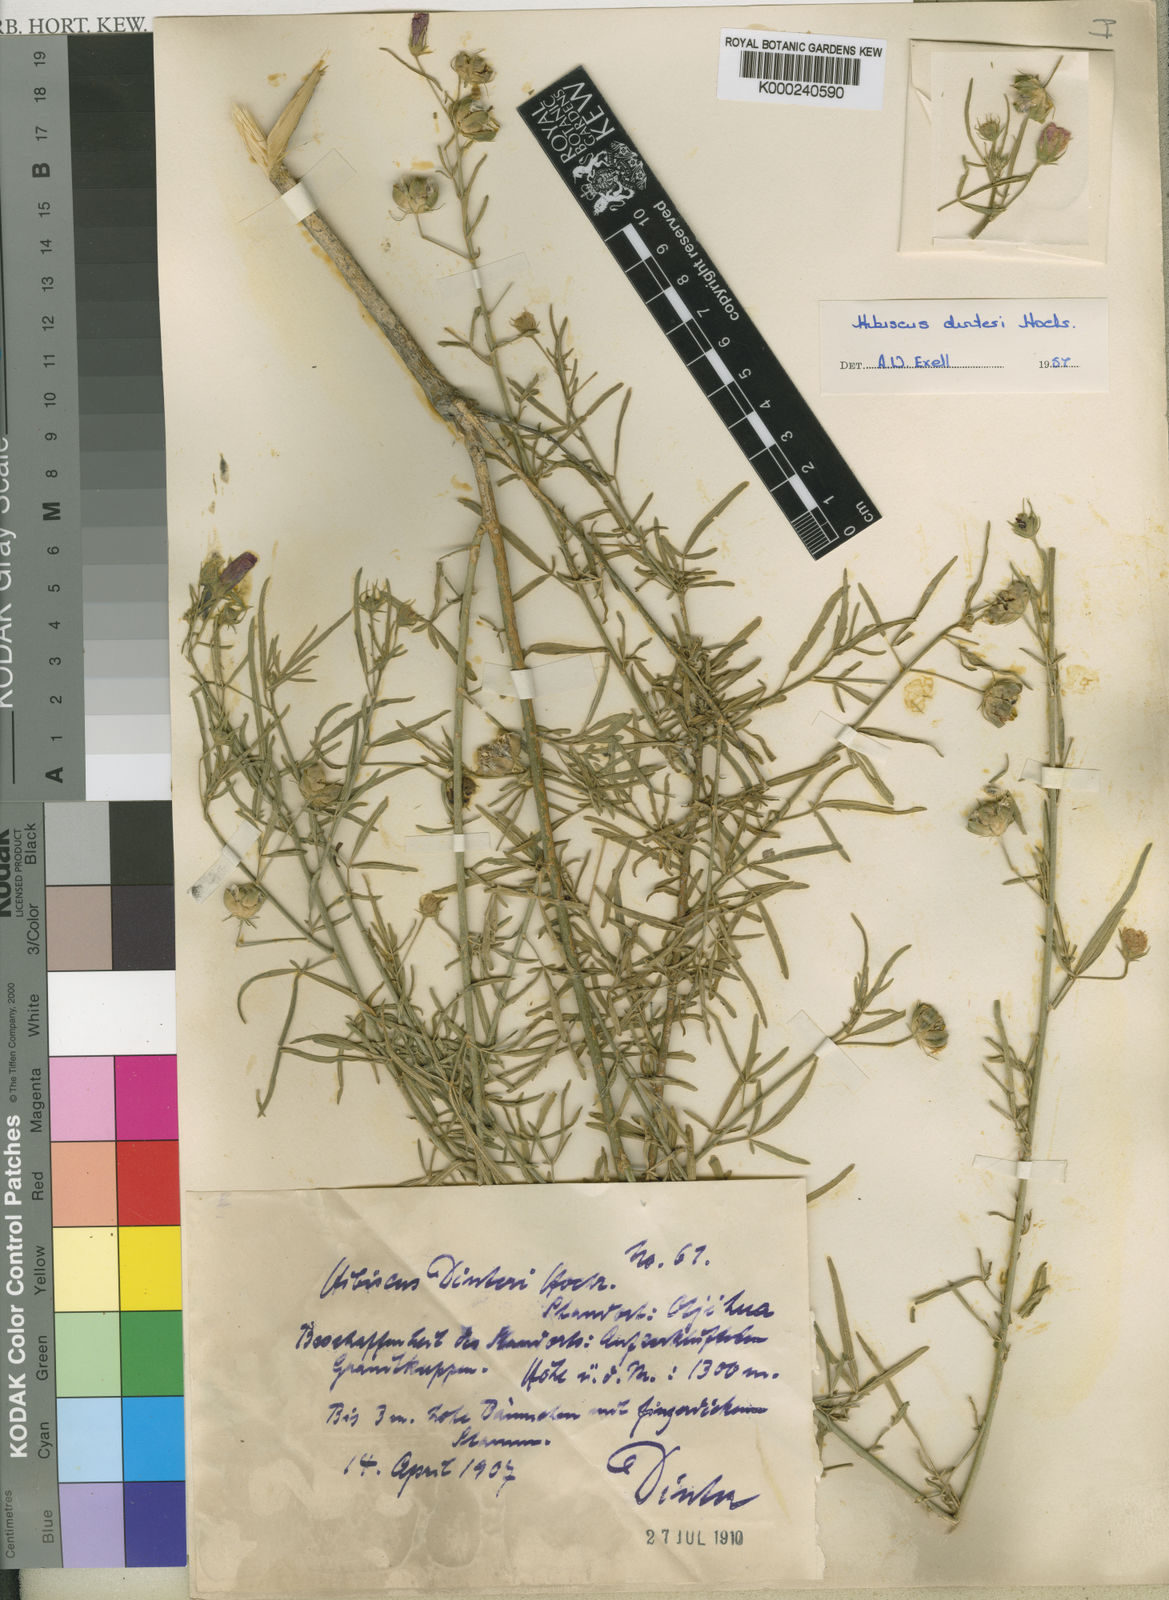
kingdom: Plantae
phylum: Tracheophyta
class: Magnoliopsida
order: Malvales
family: Malvaceae
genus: Hibiscus
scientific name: Hibiscus dinteri
